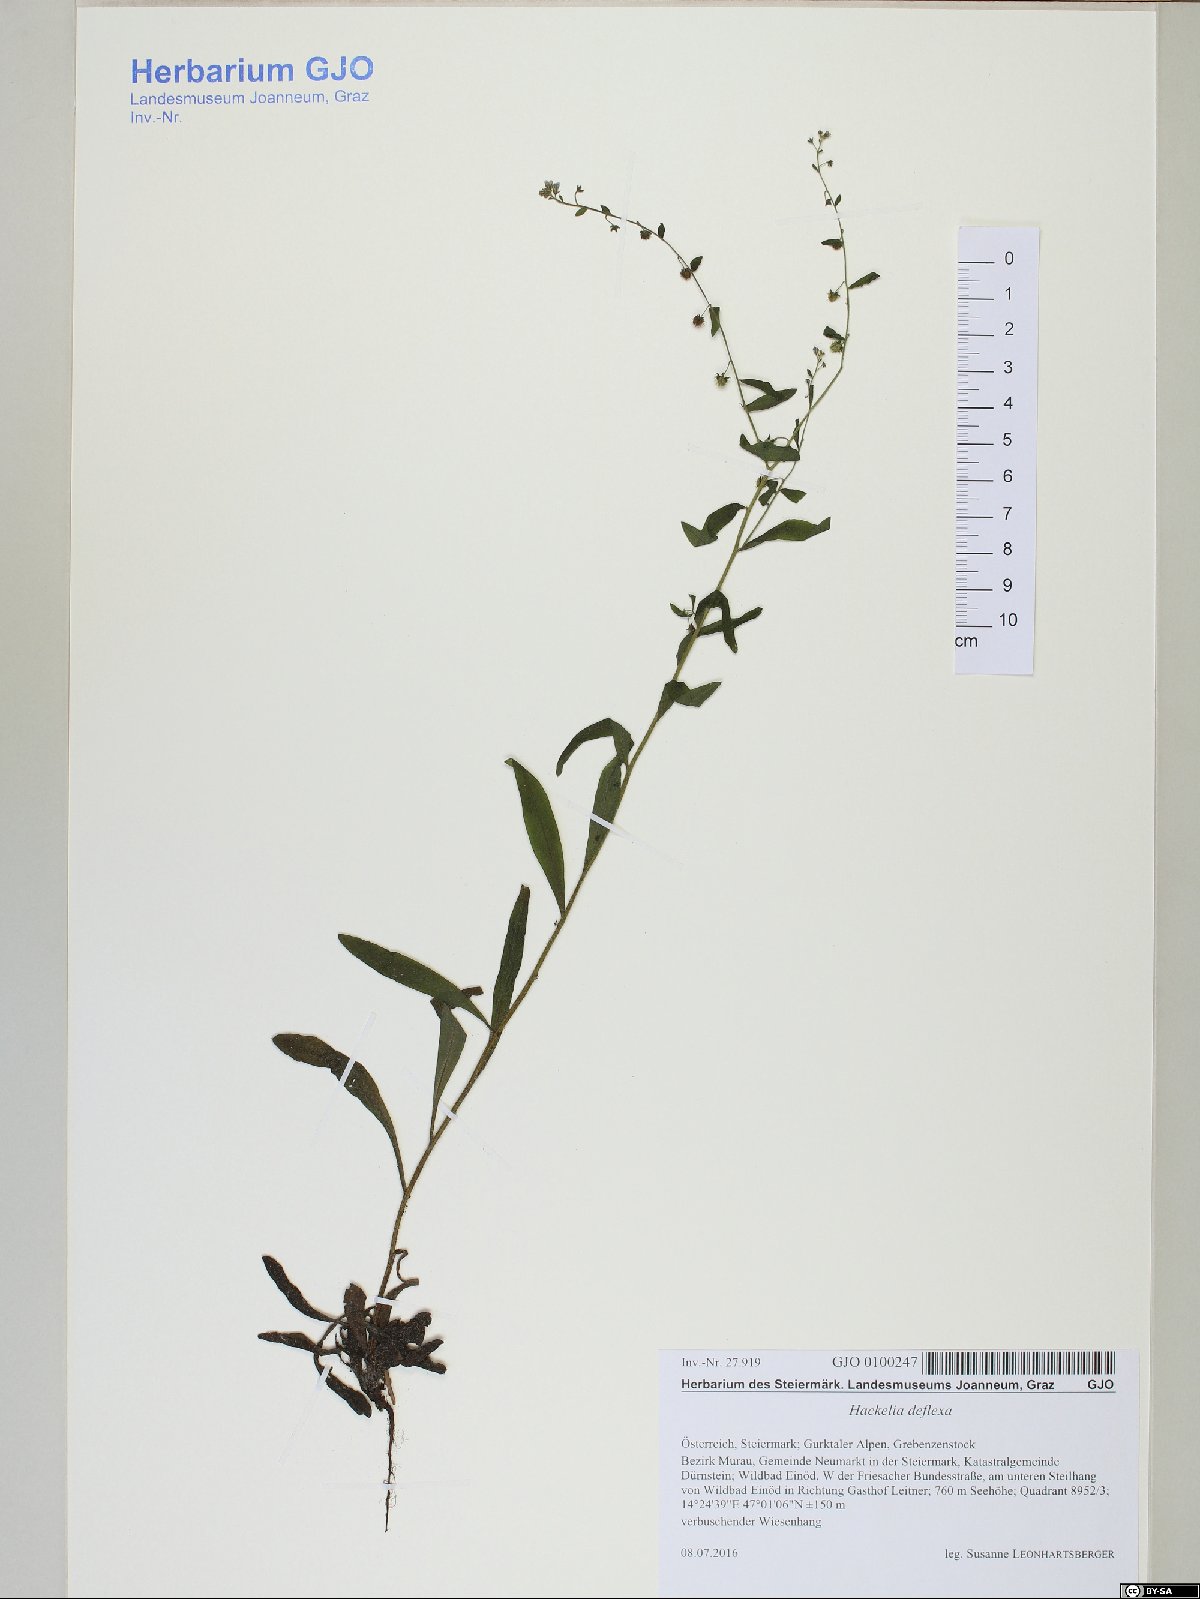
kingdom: Plantae
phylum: Tracheophyta
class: Magnoliopsida
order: Boraginales
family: Boraginaceae
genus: Hackelia
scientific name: Hackelia deflexa
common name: Nodding stickseed
